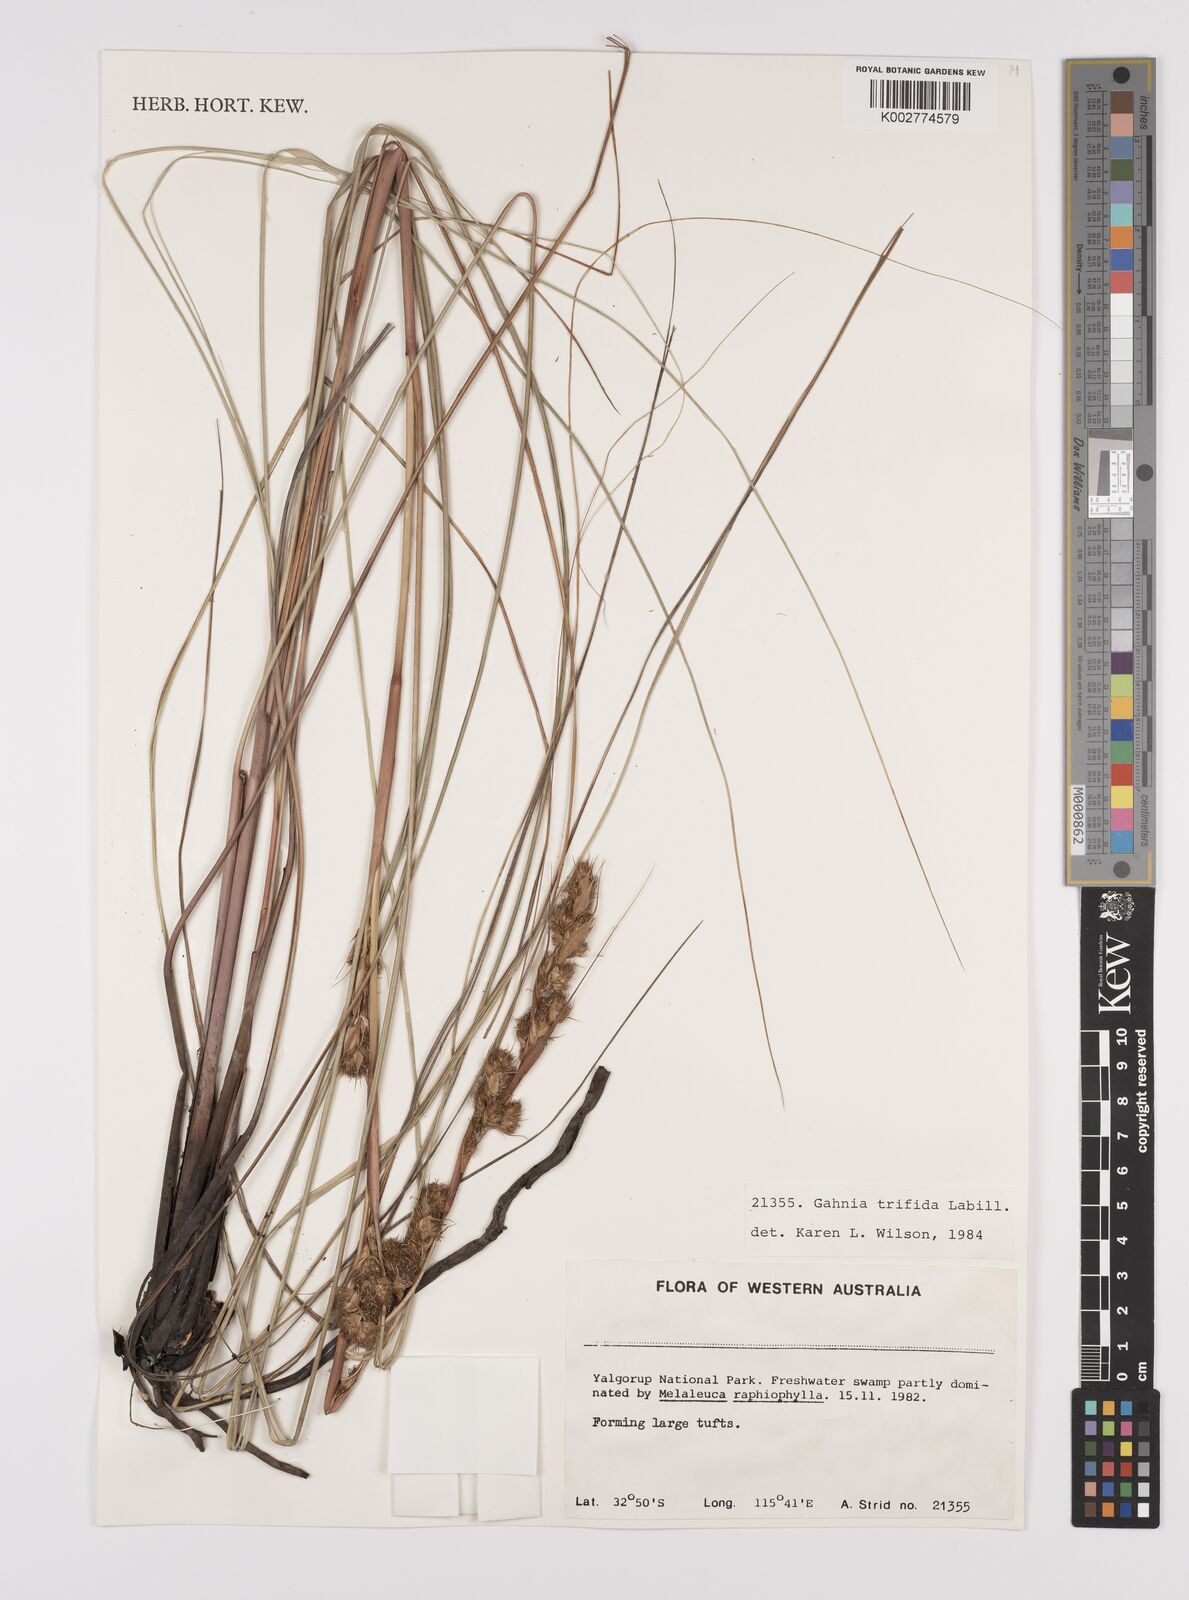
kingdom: Plantae
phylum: Tracheophyta
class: Liliopsida
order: Poales
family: Cyperaceae
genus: Gahnia
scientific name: Gahnia trifida
